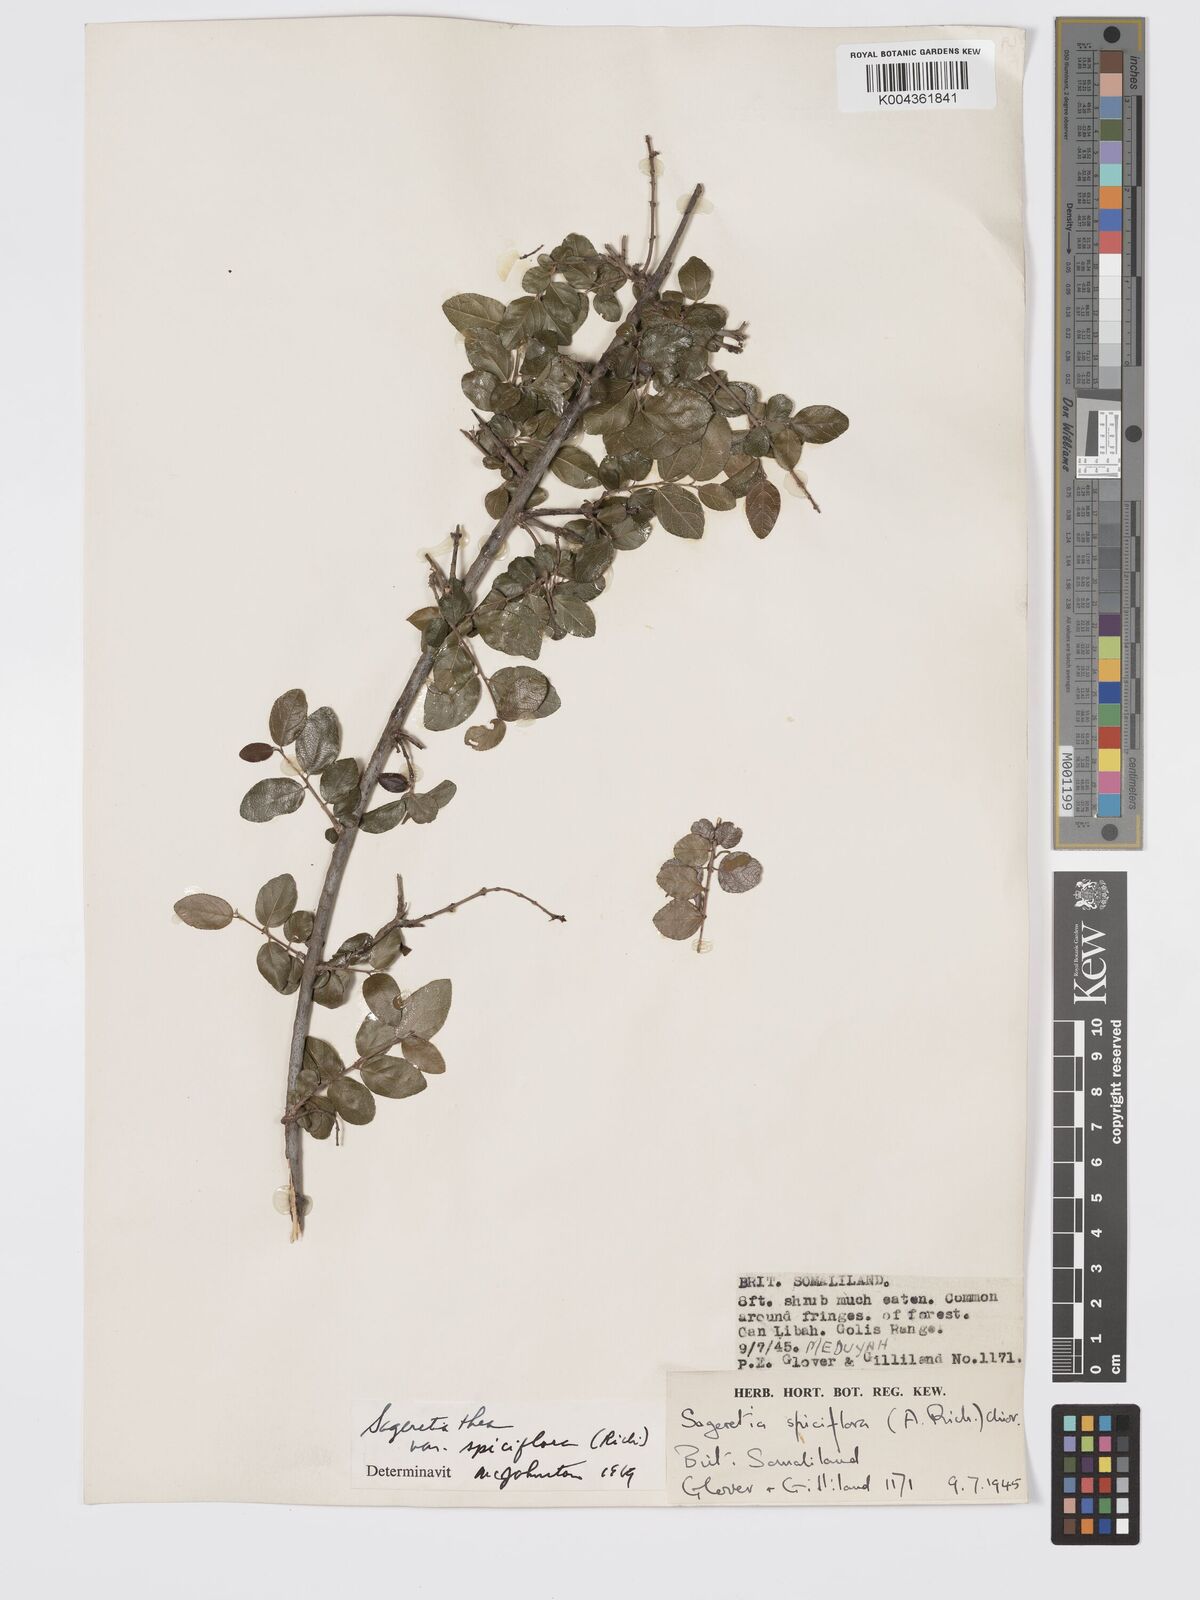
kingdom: Plantae
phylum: Tracheophyta
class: Magnoliopsida
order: Rosales
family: Rhamnaceae
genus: Sageretia
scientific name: Sageretia thea
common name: Pauper's-tea
